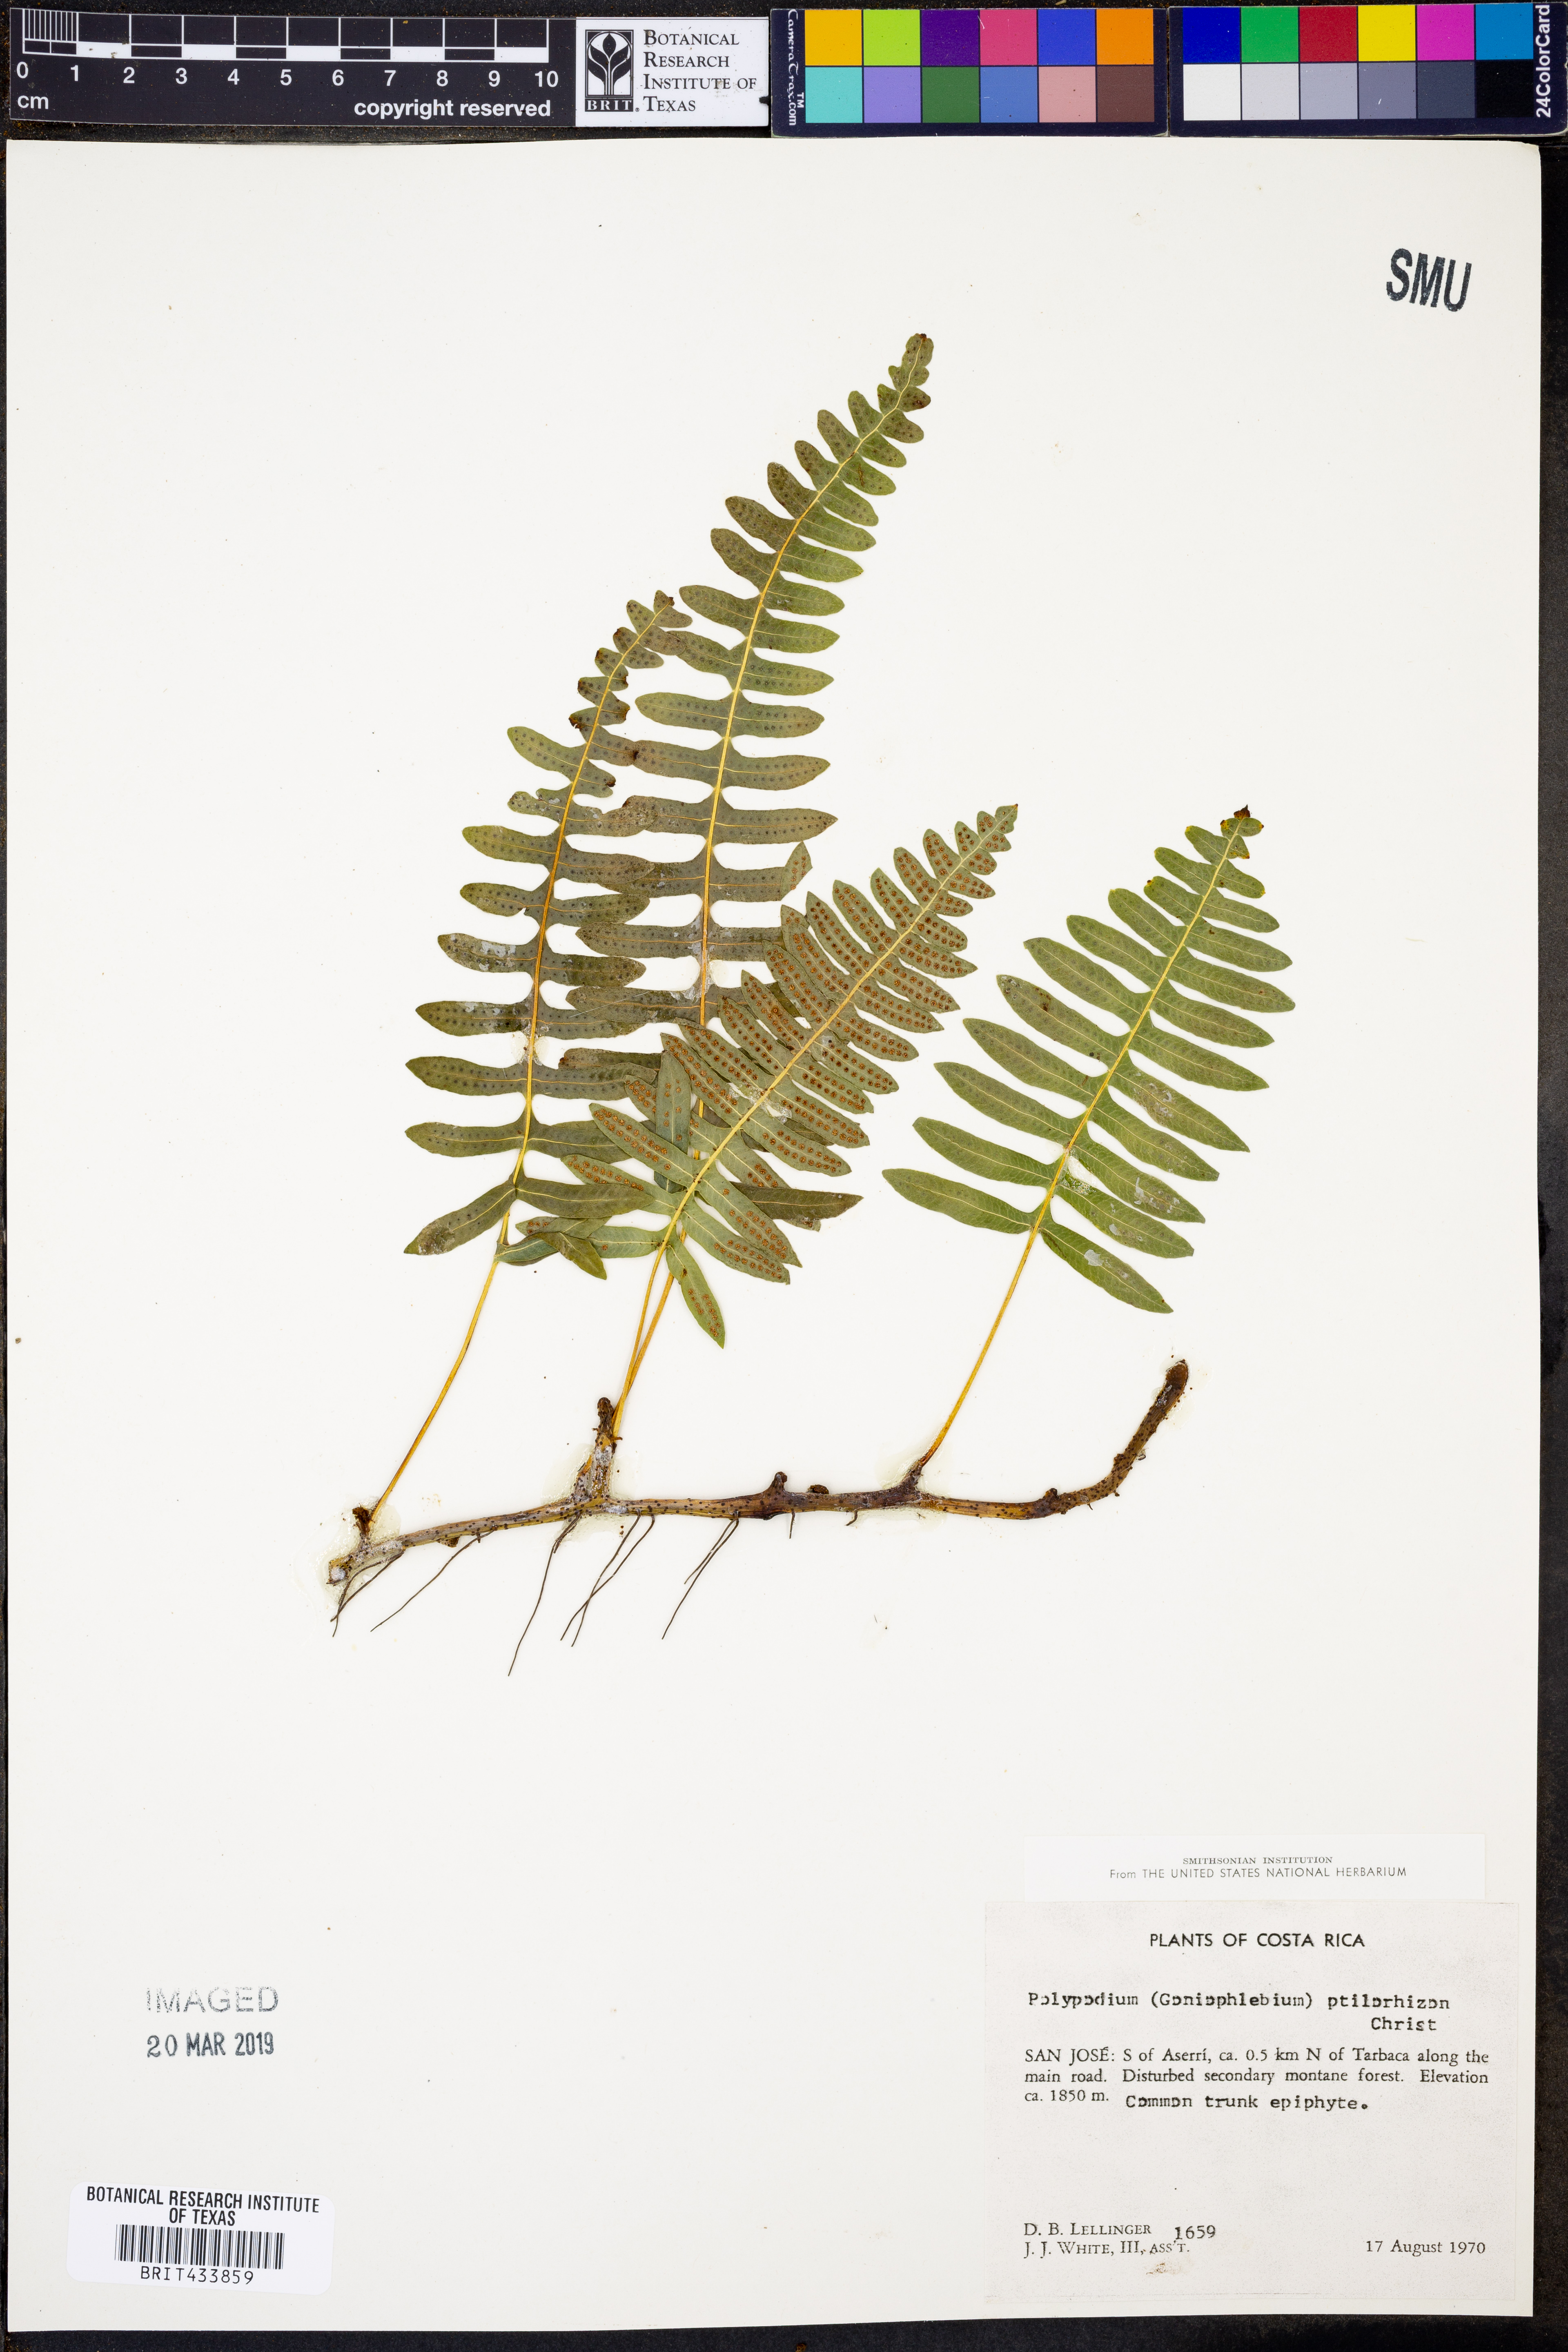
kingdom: Plantae
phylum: Tracheophyta
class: Polypodiopsida
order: Polypodiales
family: Polypodiaceae
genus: Serpocaulon
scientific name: Serpocaulon ptilorhizon
